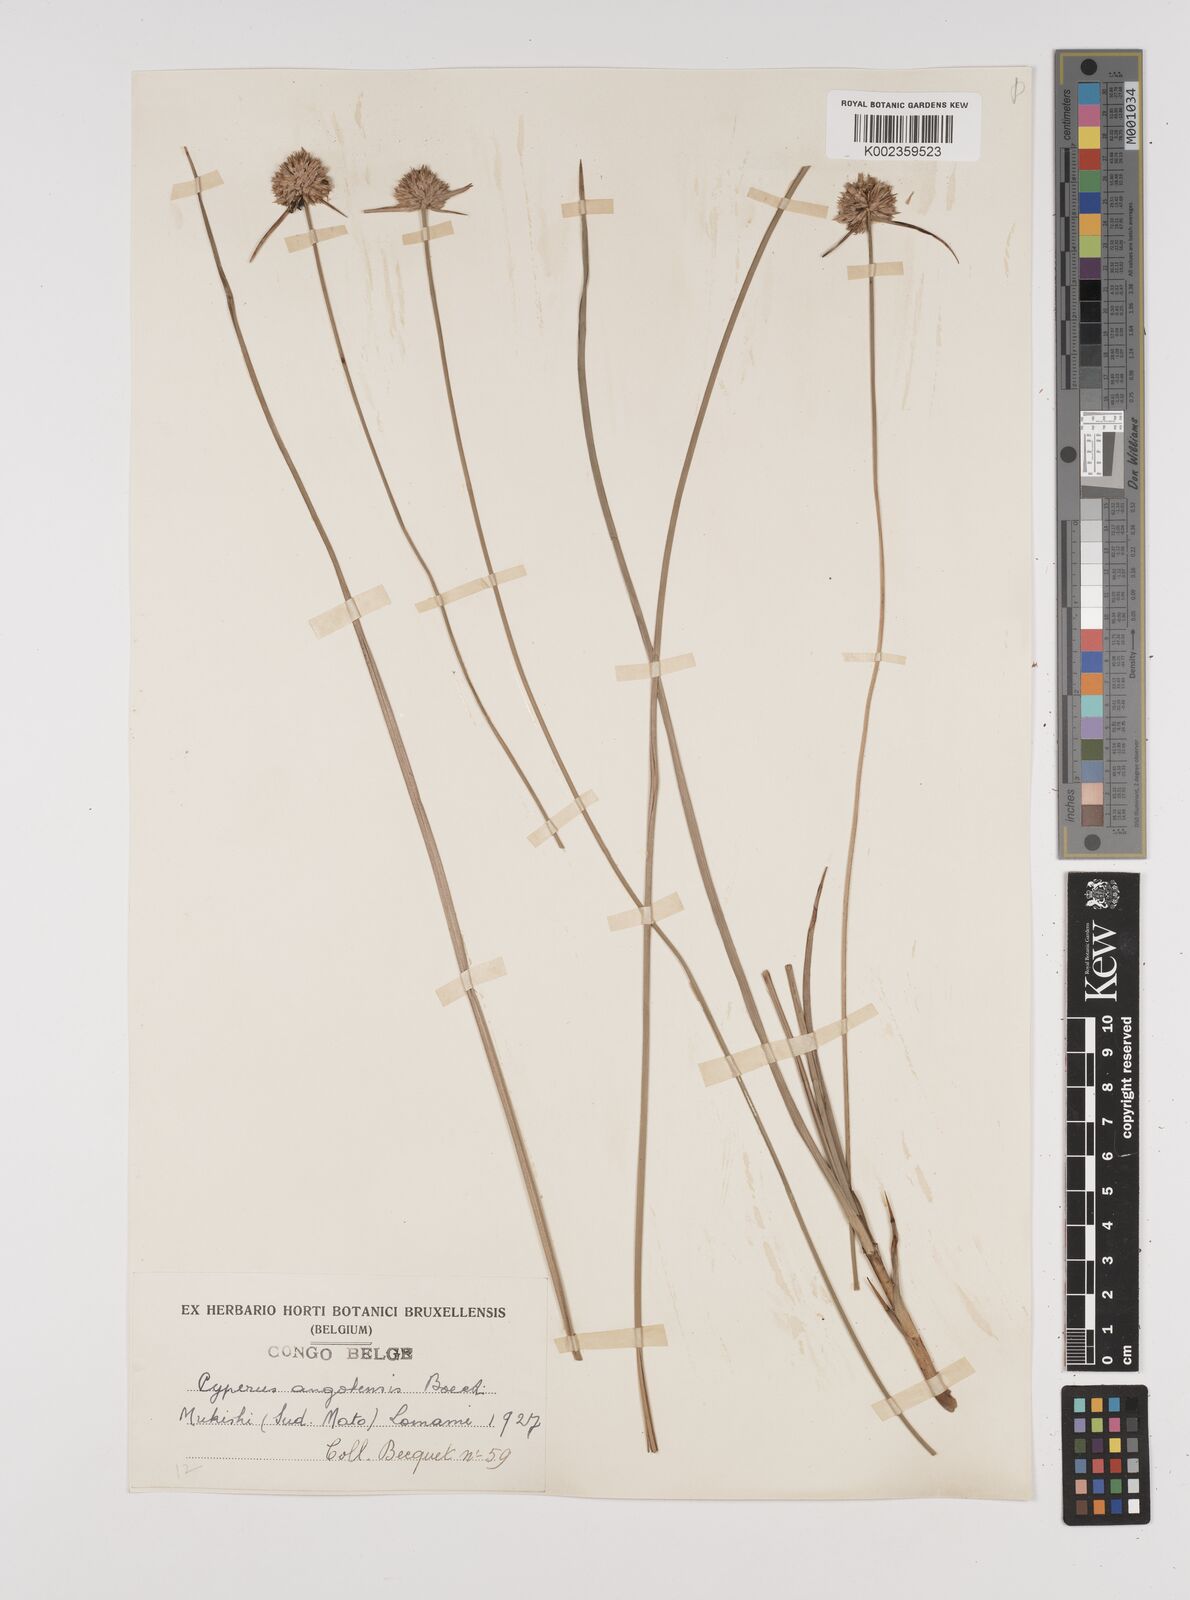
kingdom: Plantae
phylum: Tracheophyta
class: Liliopsida
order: Poales
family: Cyperaceae
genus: Cyperus
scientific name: Cyperus angolensis
